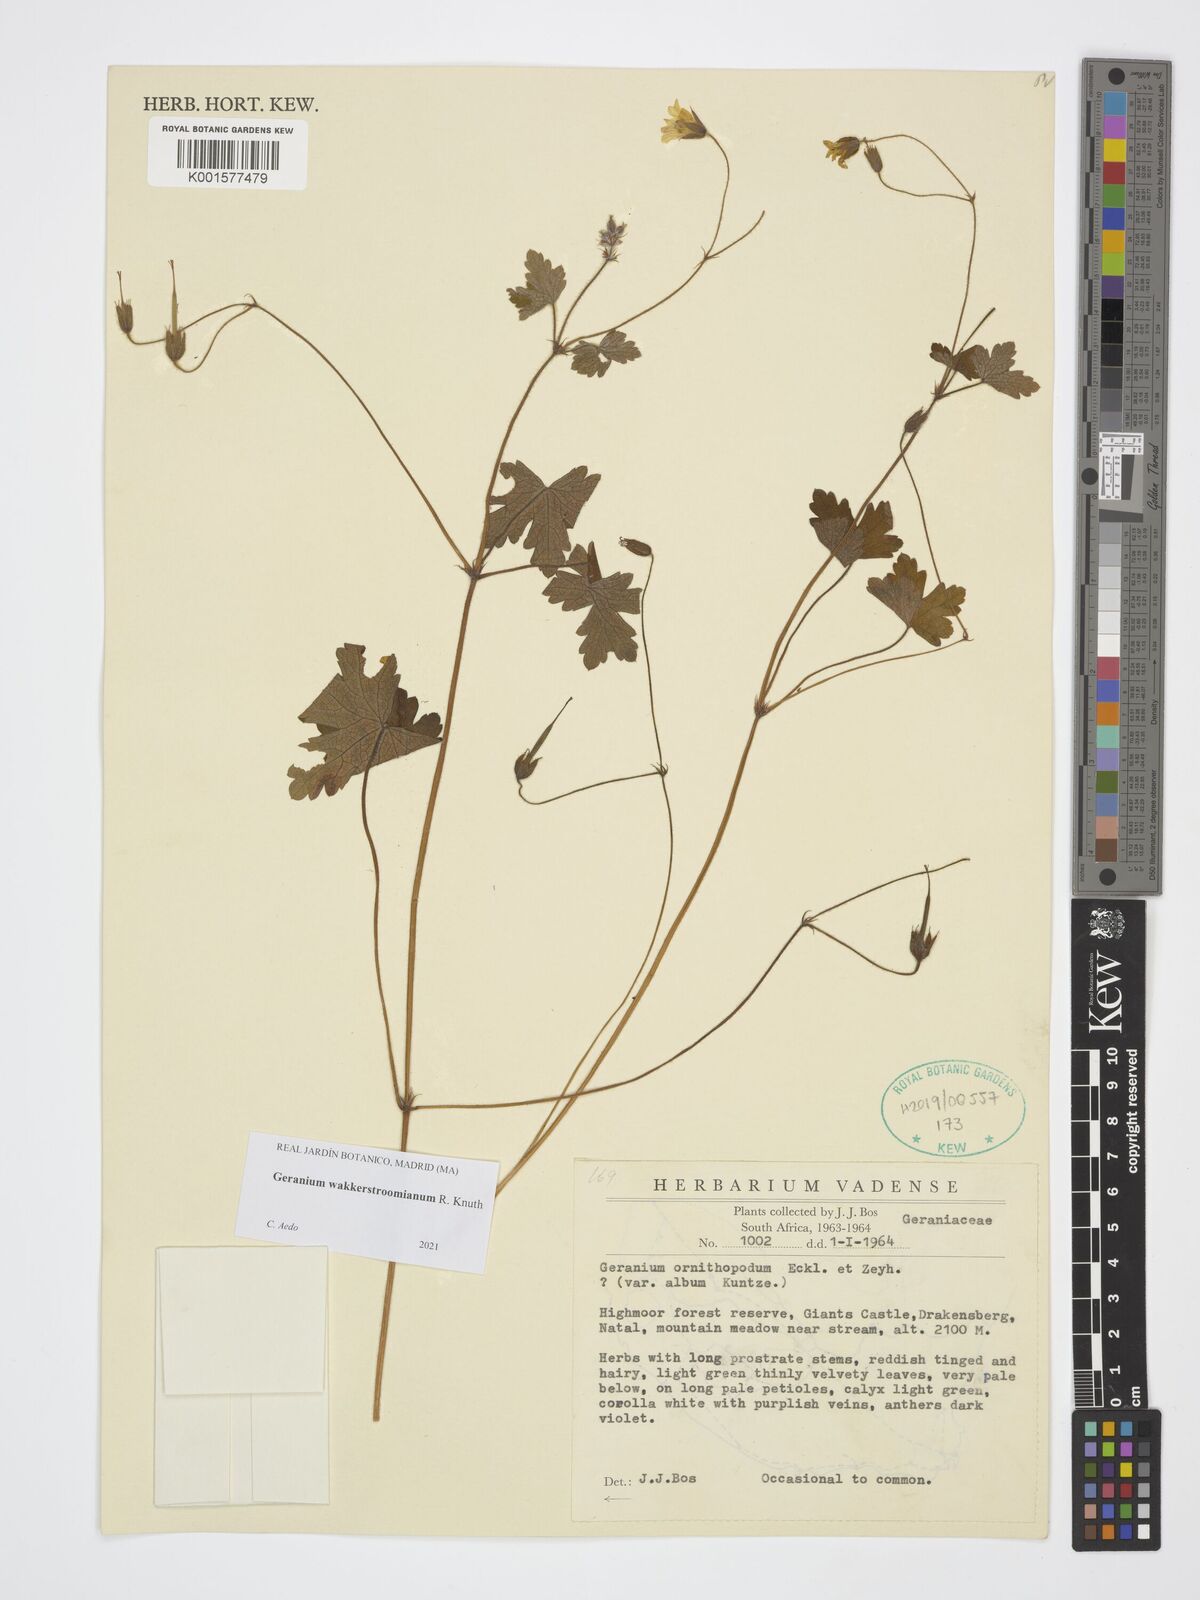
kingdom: Plantae
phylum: Tracheophyta
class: Magnoliopsida
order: Geraniales
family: Geraniaceae
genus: Geranium
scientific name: Geranium wakkerstroomianum
